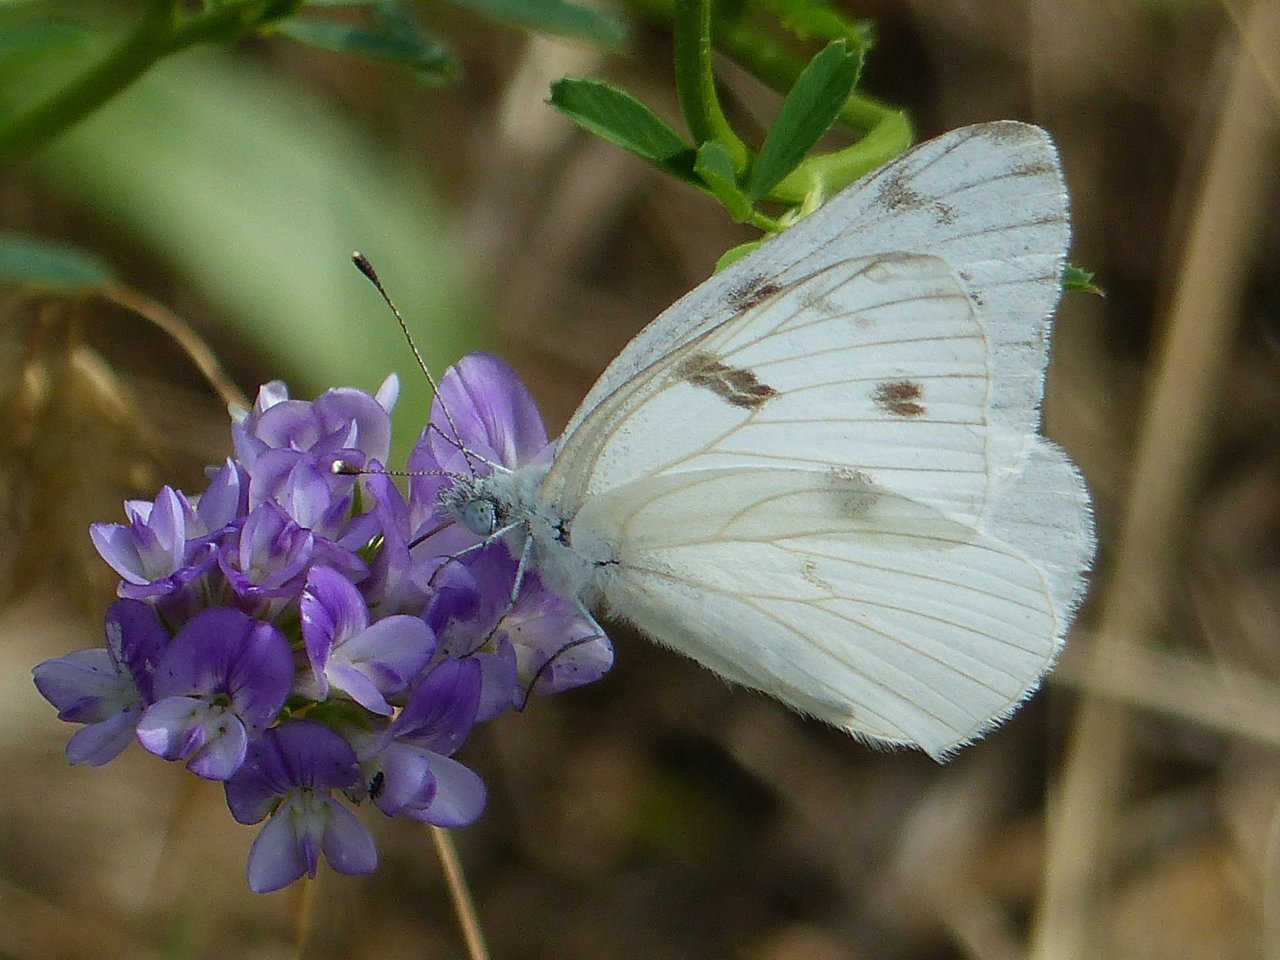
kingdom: Animalia
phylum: Arthropoda
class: Insecta
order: Lepidoptera
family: Pieridae
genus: Pontia
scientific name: Pontia protodice
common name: Checkered White
